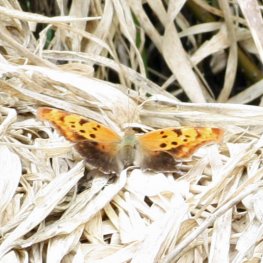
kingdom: Animalia
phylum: Arthropoda
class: Insecta
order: Lepidoptera
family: Nymphalidae
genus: Polygonia
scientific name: Polygonia interrogationis
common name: Question Mark
